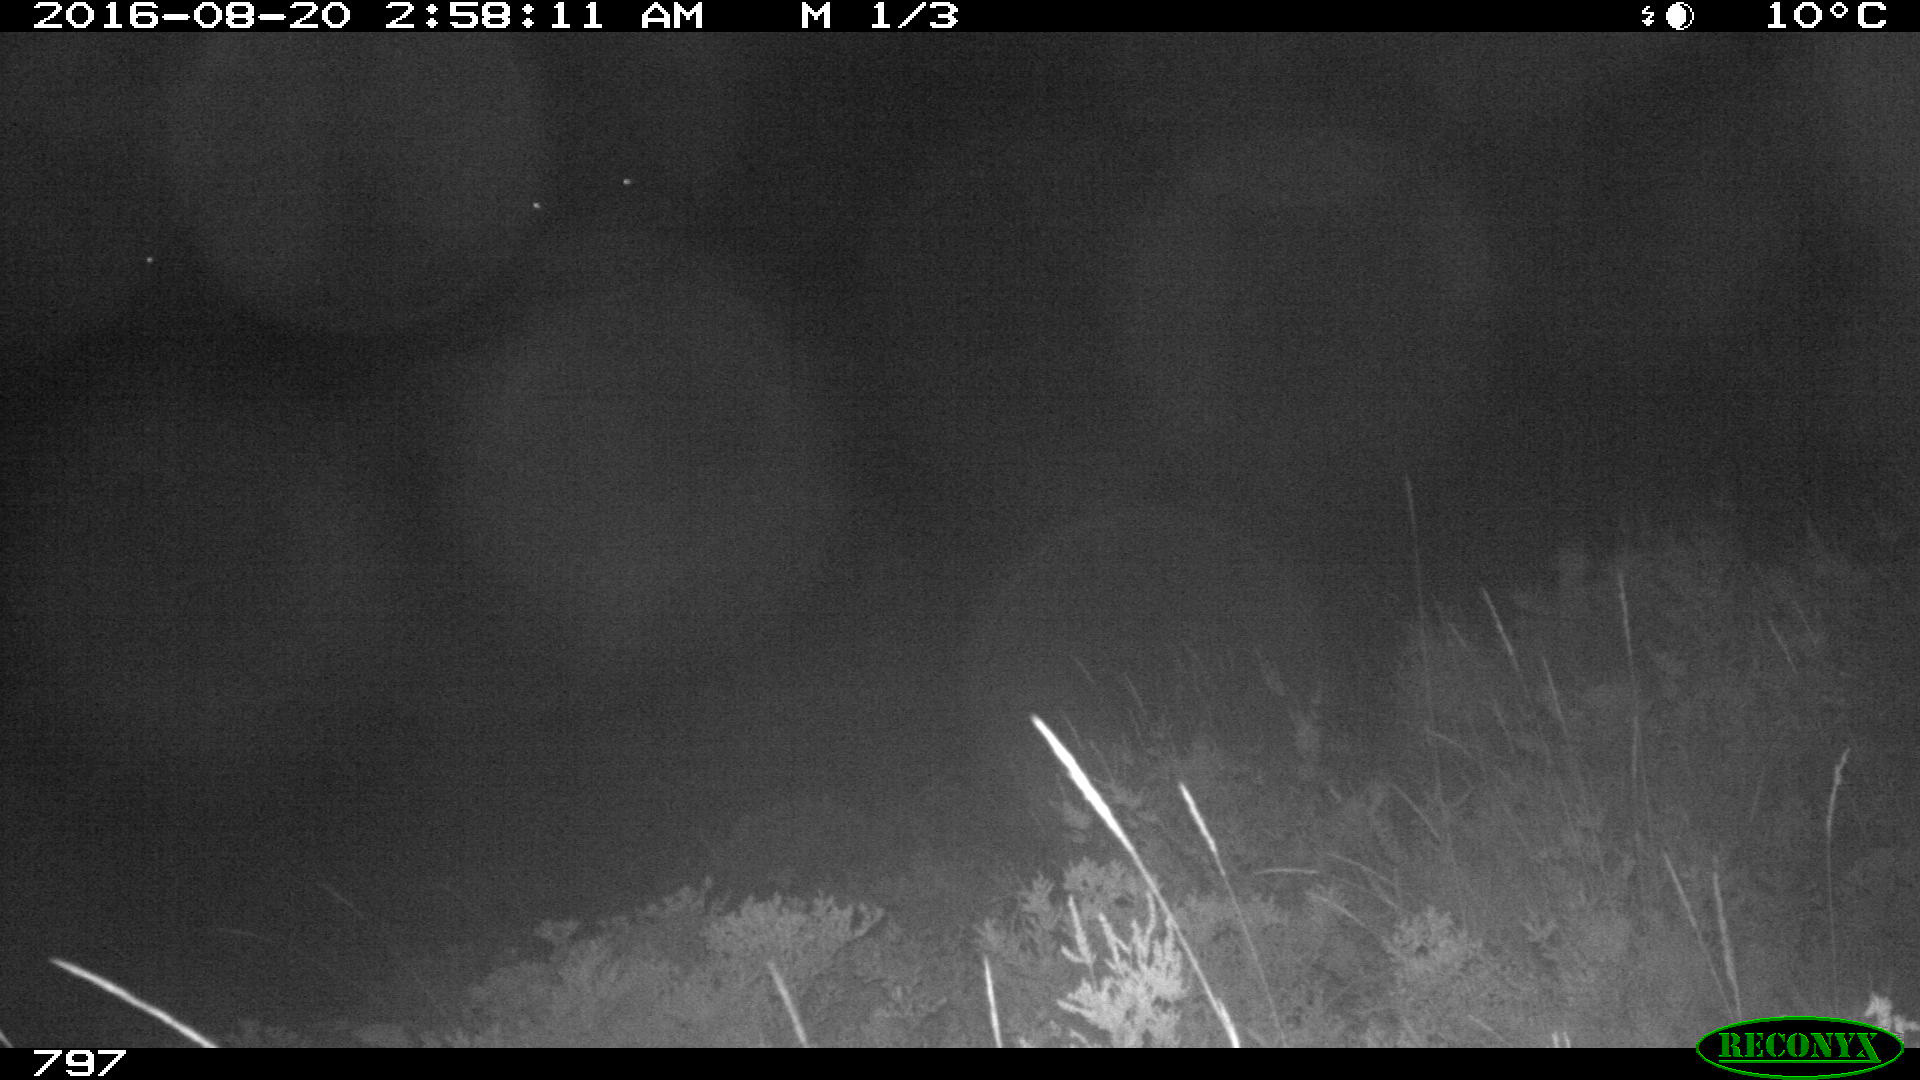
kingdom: Animalia
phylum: Chordata
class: Mammalia
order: Artiodactyla
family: Bovidae
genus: Bos
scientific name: Bos taurus
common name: Domesticated cattle
